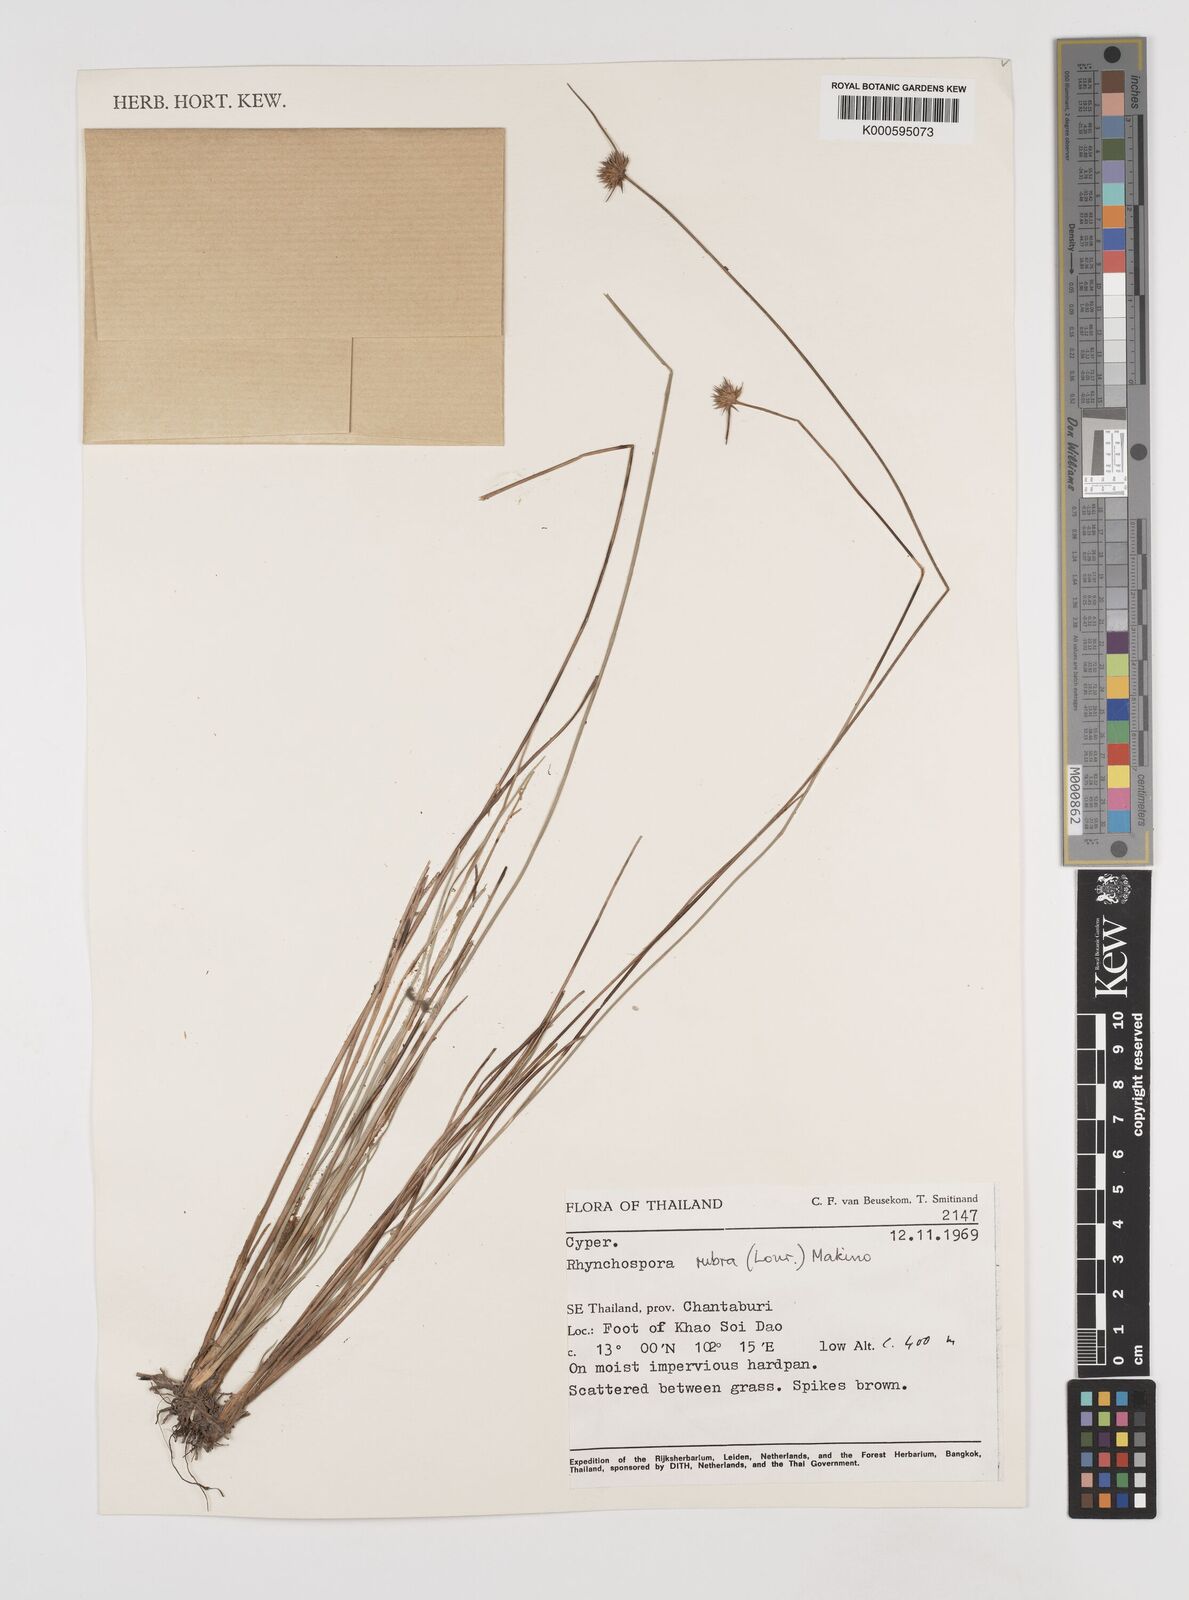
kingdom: Plantae
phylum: Tracheophyta
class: Liliopsida
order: Poales
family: Cyperaceae
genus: Rhynchospora
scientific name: Rhynchospora rubra
